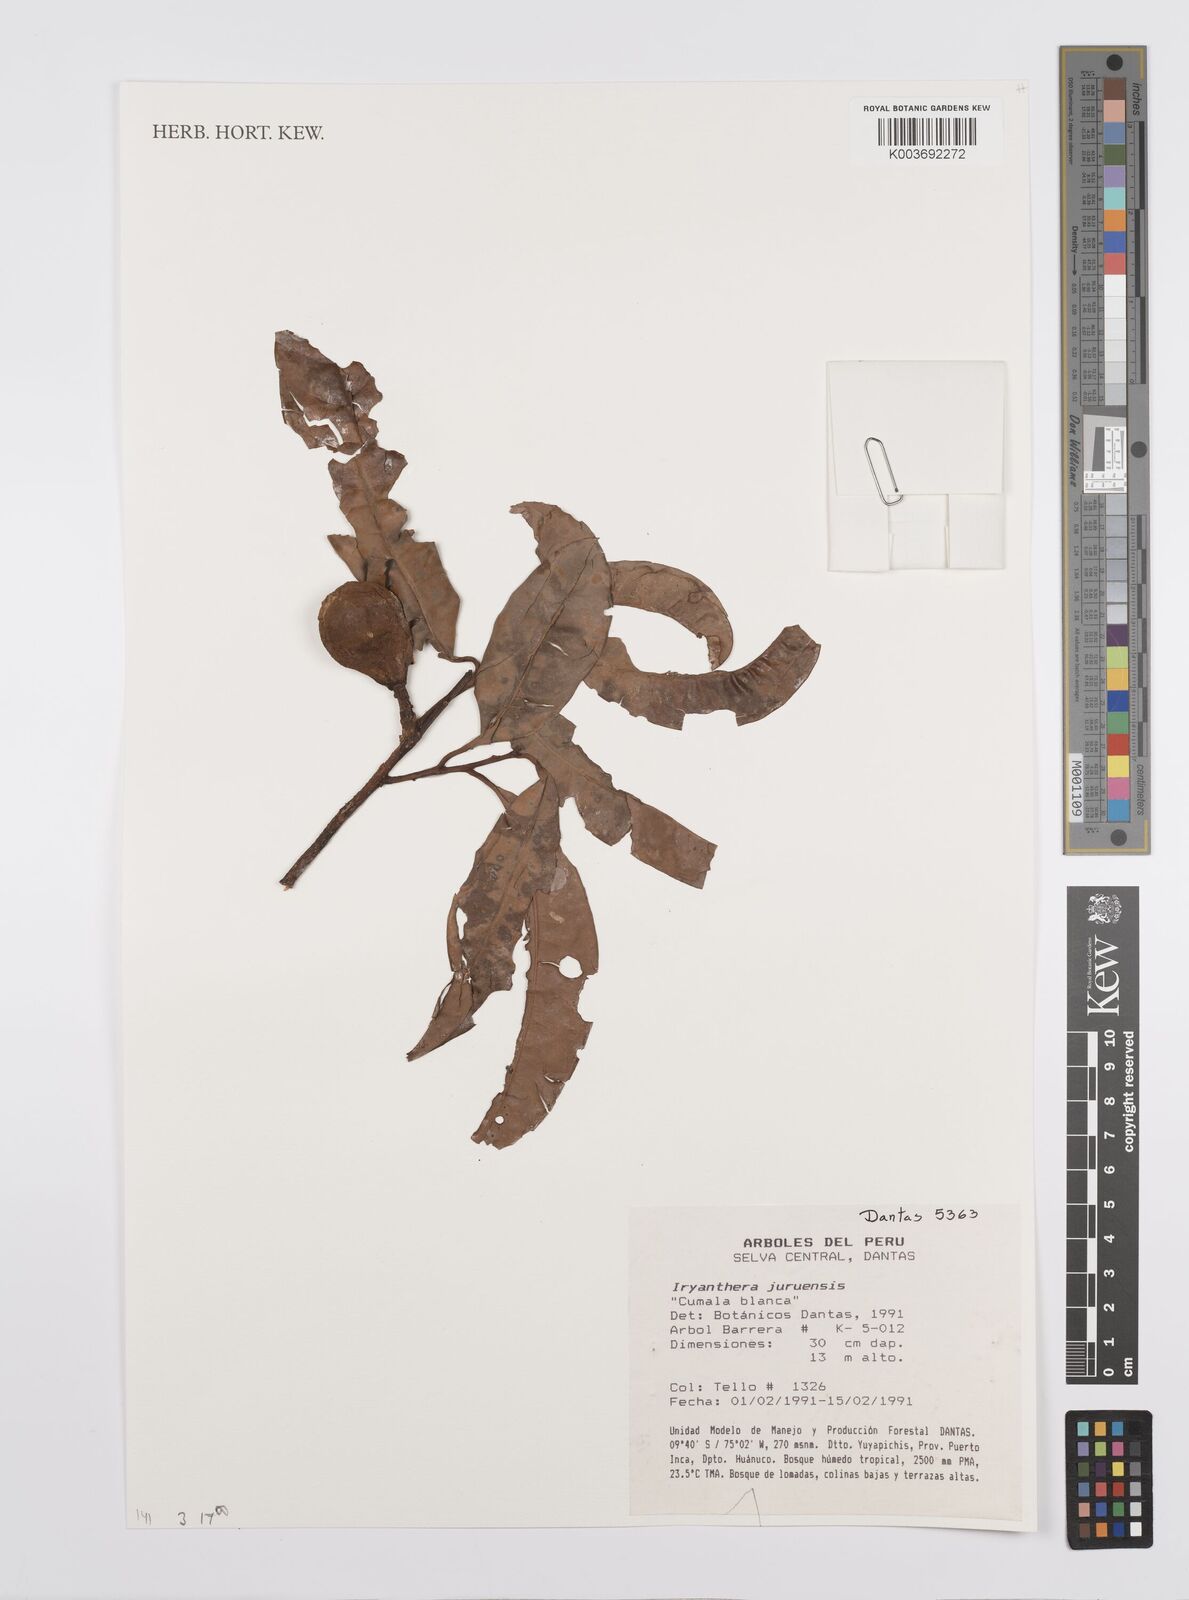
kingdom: Plantae
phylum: Tracheophyta
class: Magnoliopsida
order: Magnoliales
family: Myristicaceae
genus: Iryanthera
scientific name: Iryanthera juruensis
